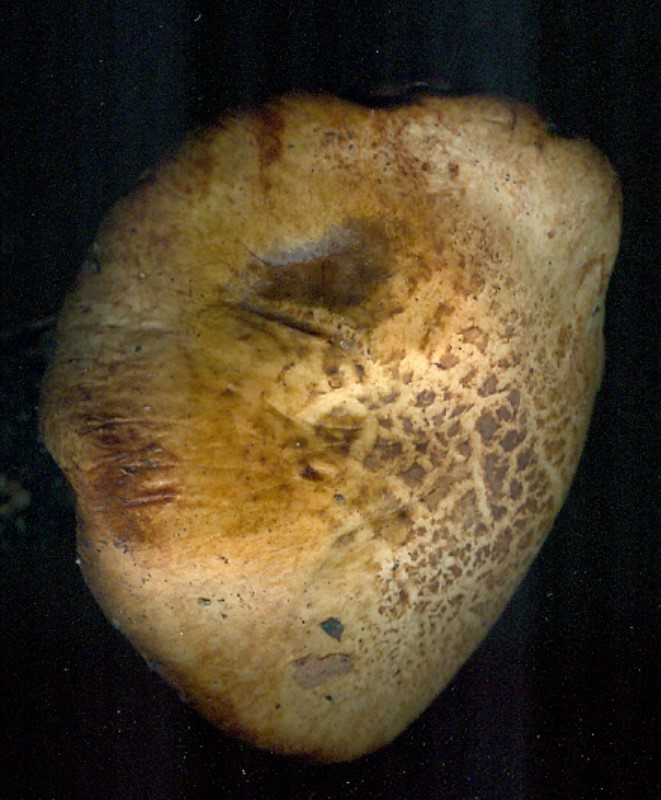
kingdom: Fungi
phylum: Basidiomycota
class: Agaricomycetes
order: Boletales
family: Paxillaceae
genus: Paxillus
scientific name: Paxillus ammoniavirescens
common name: olivensporet netbladhat
